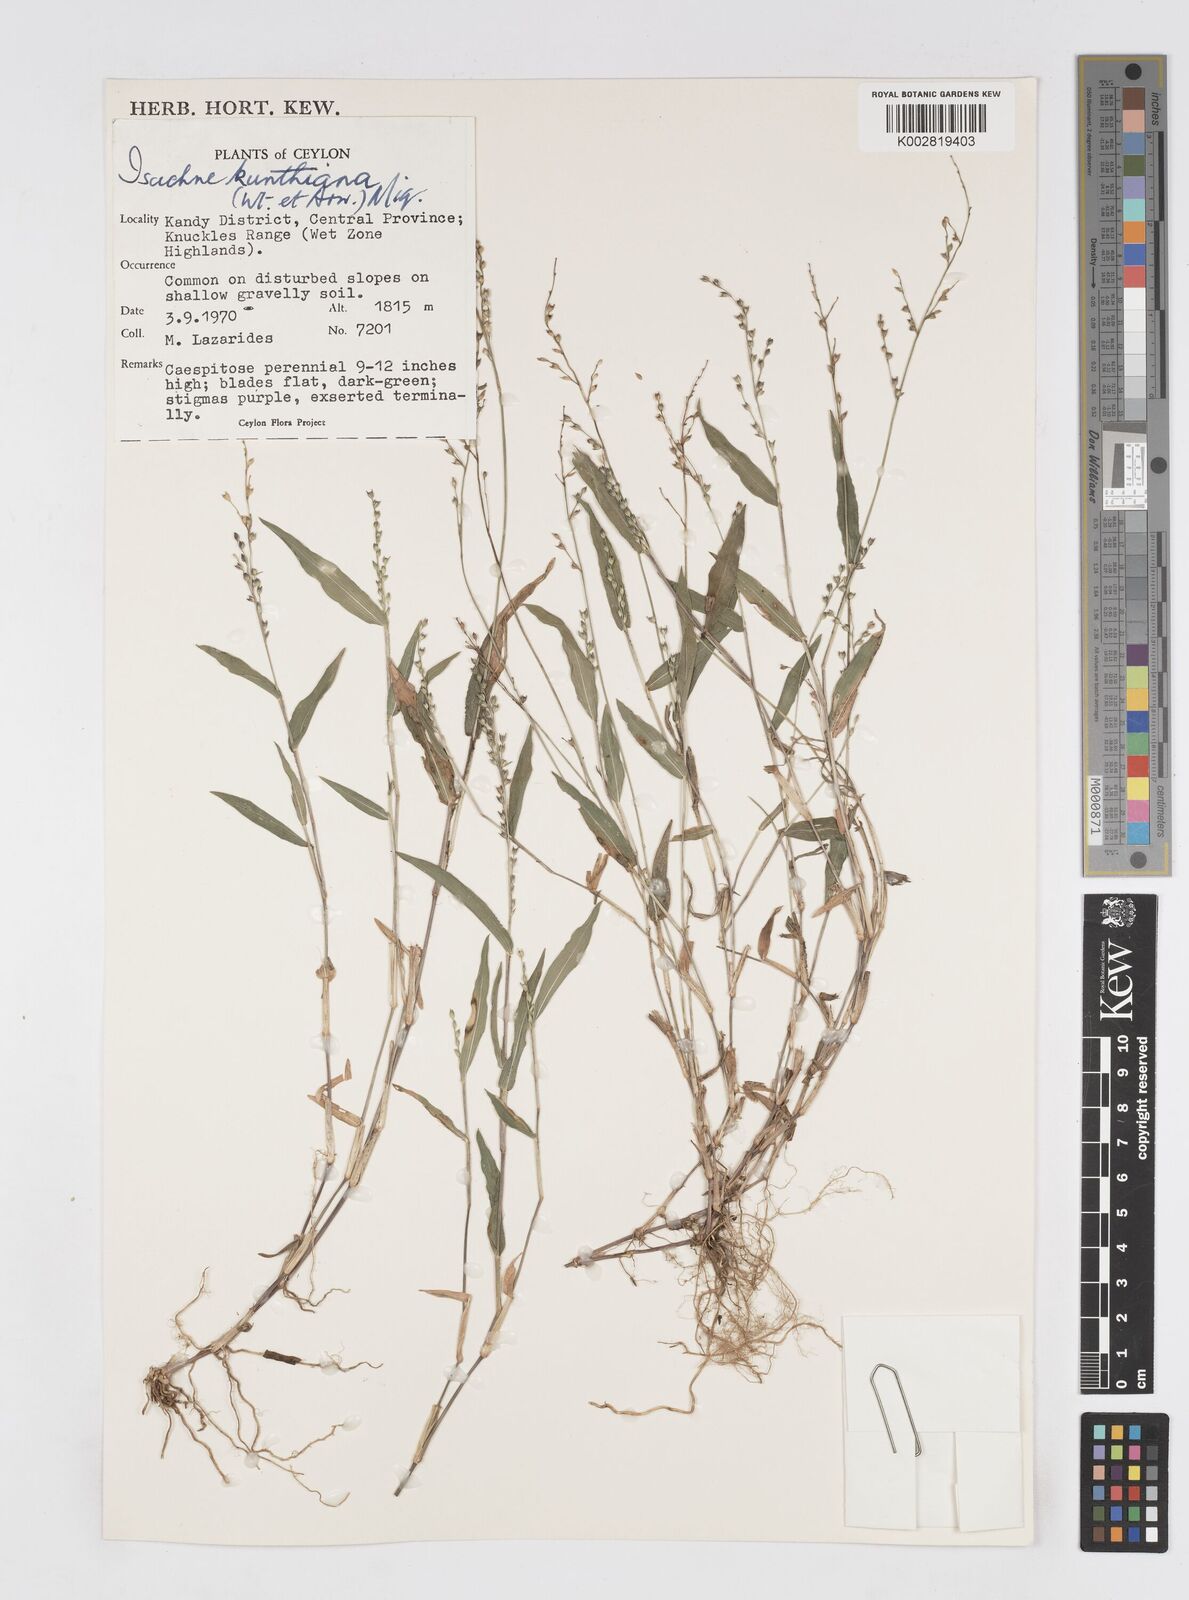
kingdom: Plantae
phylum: Tracheophyta
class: Liliopsida
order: Poales
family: Poaceae
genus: Isachne
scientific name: Isachne kunthiana
